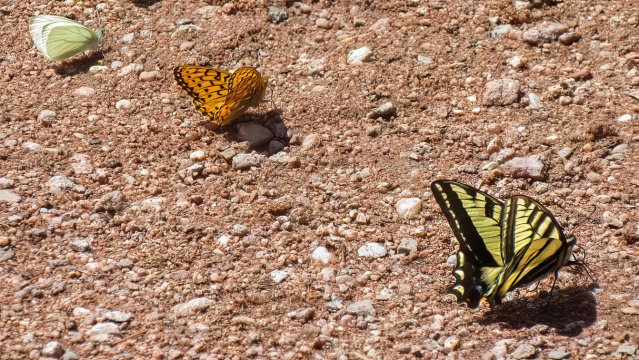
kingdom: Animalia
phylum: Arthropoda
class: Insecta
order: Lepidoptera
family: Papilionidae
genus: Pterourus
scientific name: Pterourus rutulus
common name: Western Tiger Swallowtail
